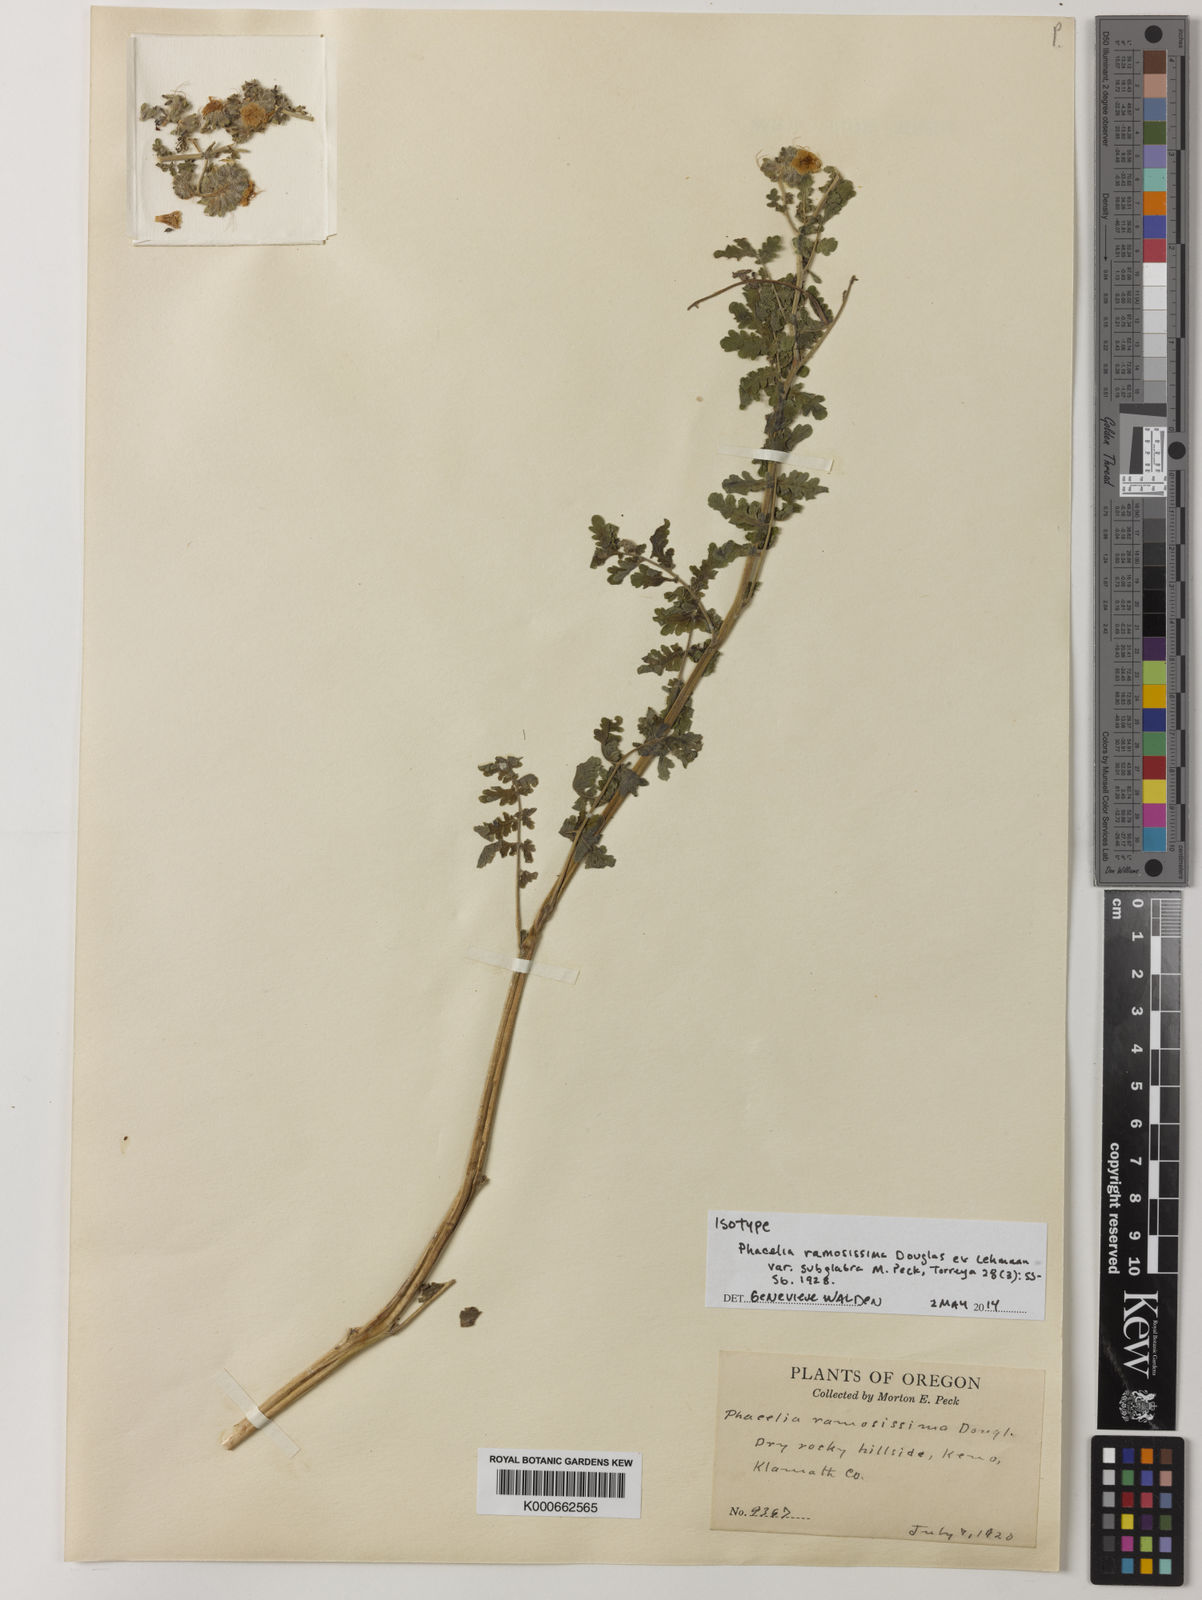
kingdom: Plantae
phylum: Tracheophyta
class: Magnoliopsida
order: Boraginales
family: Hydrophyllaceae
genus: Phacelia
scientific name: Phacelia ramosissima
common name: Branching phacelia
